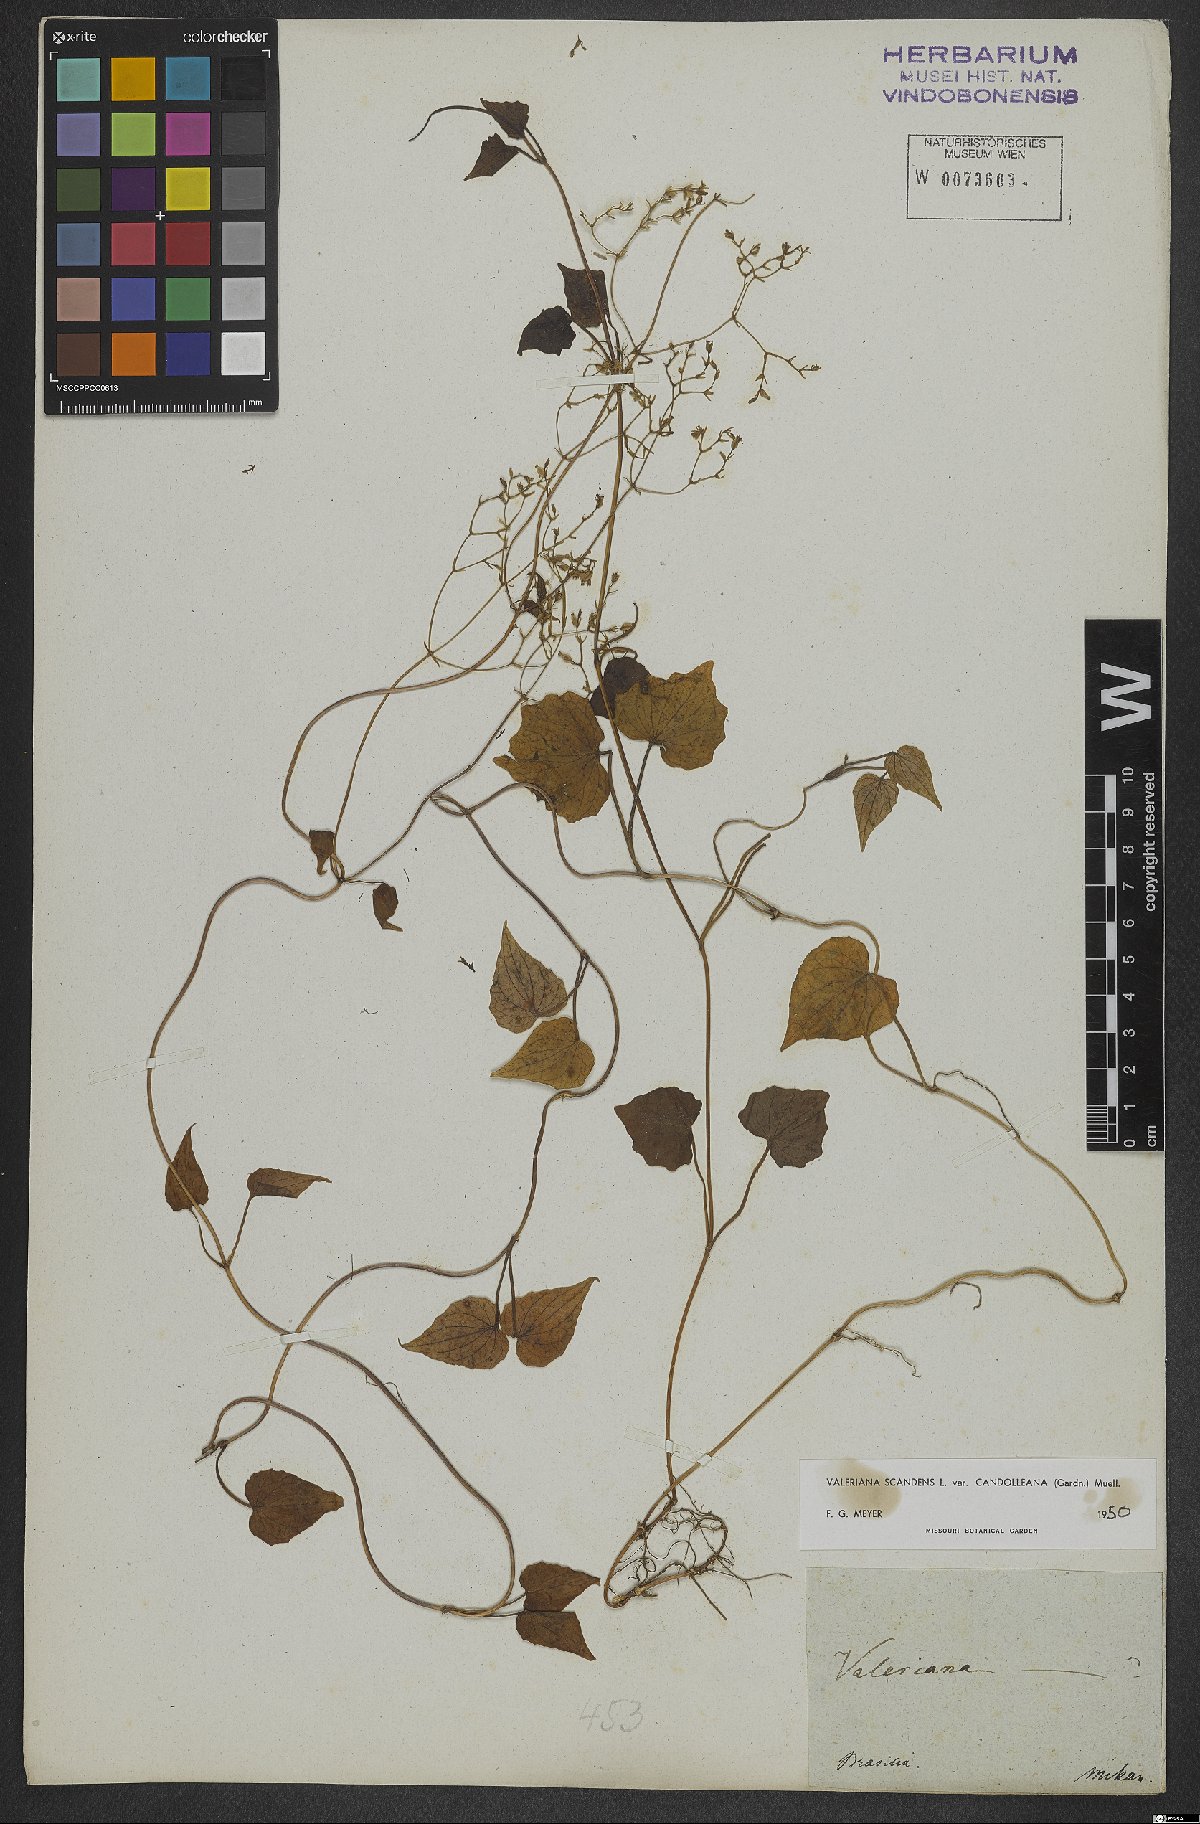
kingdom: Plantae
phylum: Tracheophyta
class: Magnoliopsida
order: Dipsacales
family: Caprifoliaceae
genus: Valeriana
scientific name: Valeriana candolleana
